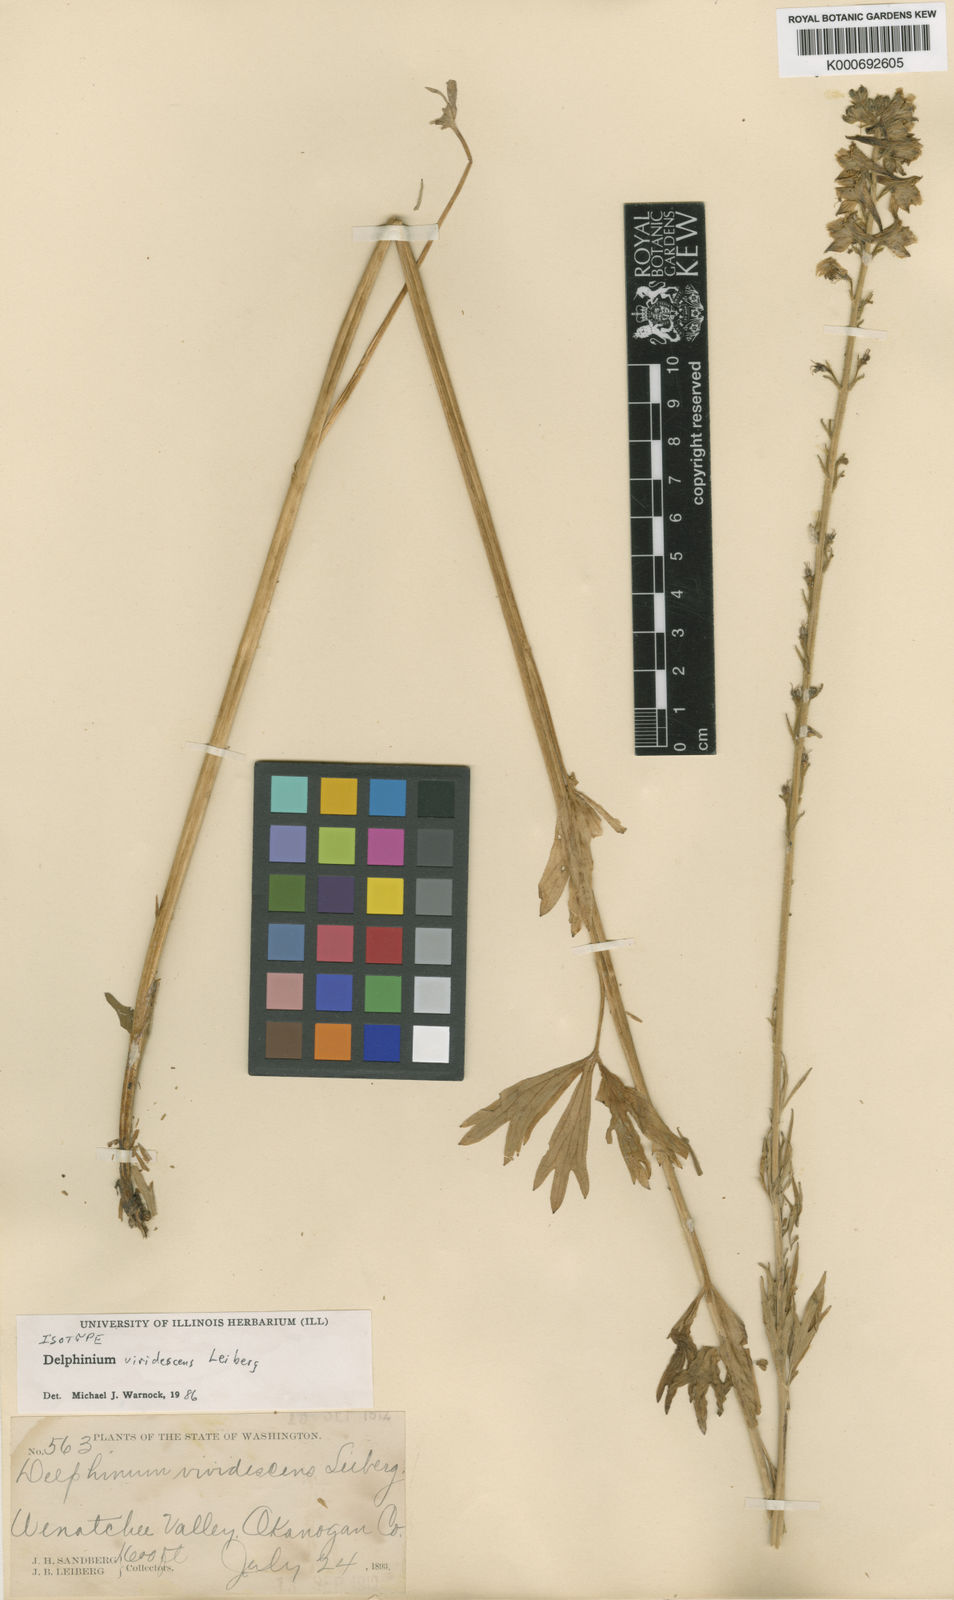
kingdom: Plantae
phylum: Tracheophyta
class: Magnoliopsida
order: Ranunculales
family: Ranunculaceae
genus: Delphinium
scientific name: Delphinium viridescens
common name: Wenatchee larkspur
